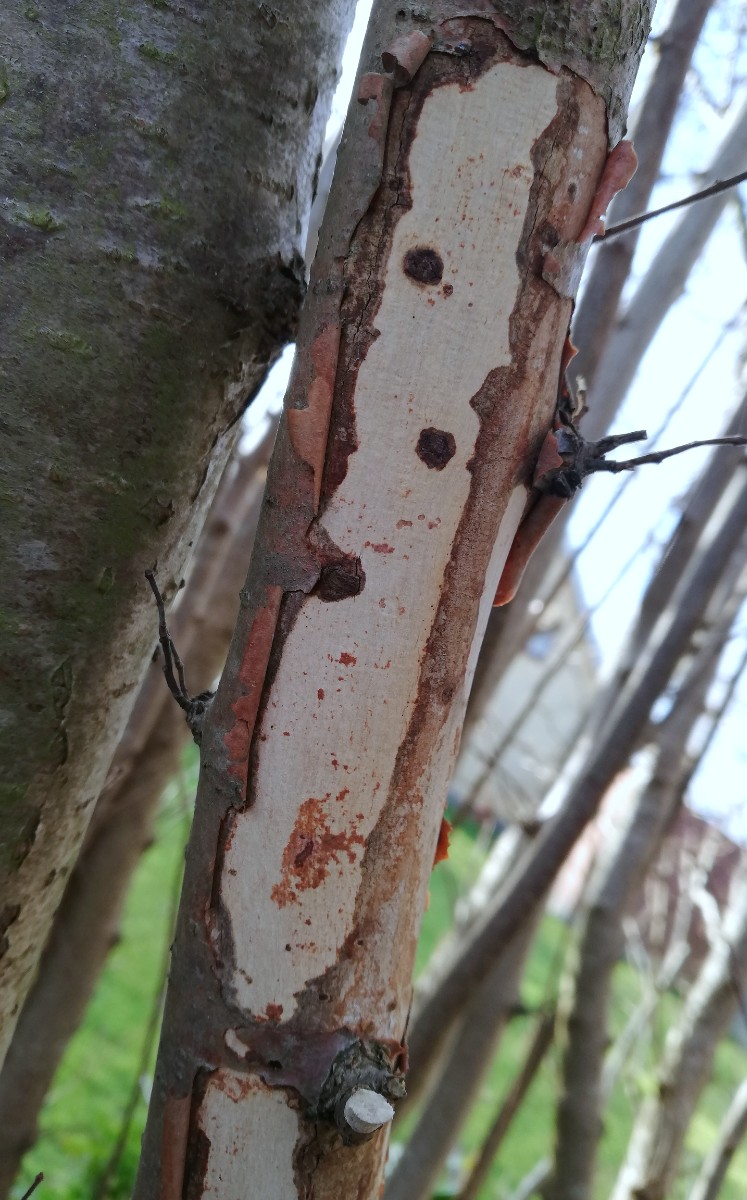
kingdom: Fungi
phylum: Basidiomycota
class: Agaricomycetes
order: Corticiales
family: Vuilleminiaceae
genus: Vuilleminia
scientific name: Vuilleminia coryli
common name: hassel-barksprænger
